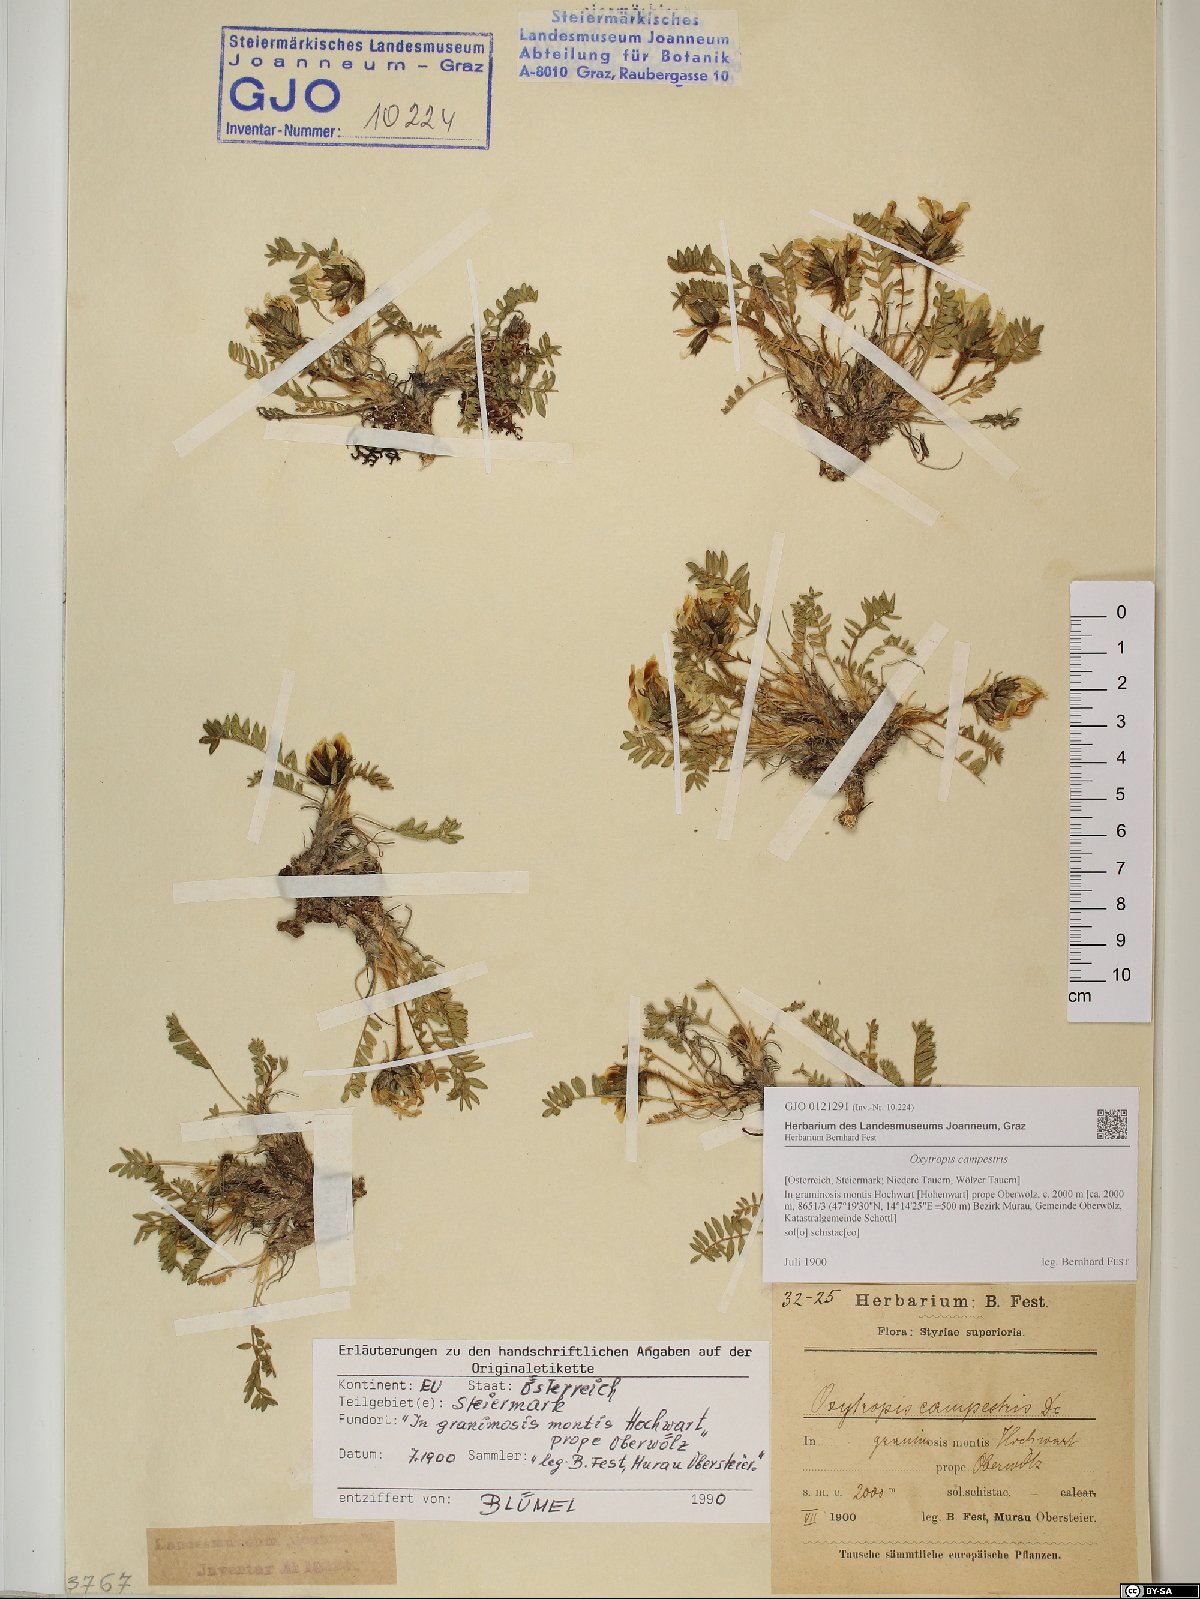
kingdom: Plantae
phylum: Tracheophyta
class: Magnoliopsida
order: Fabales
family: Fabaceae
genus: Oxytropis
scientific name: Oxytropis campestris
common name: Field locoweed
